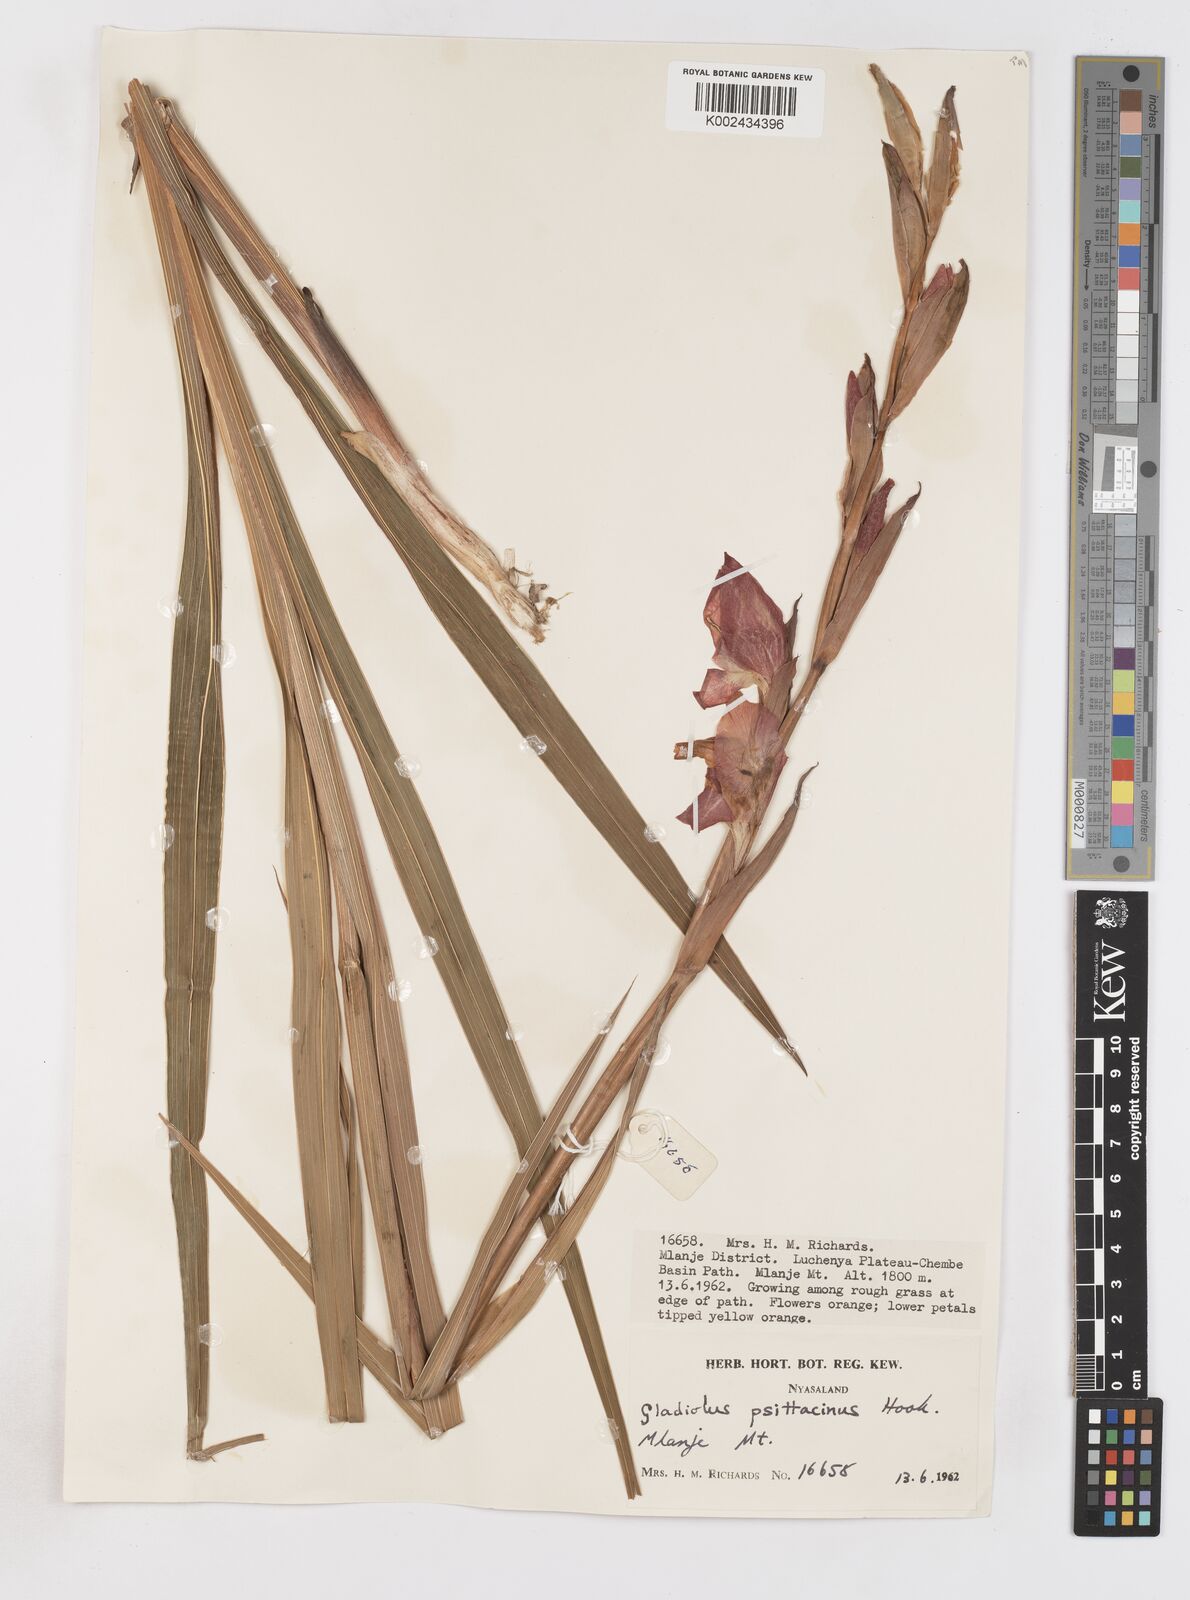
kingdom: Plantae
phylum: Tracheophyta
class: Liliopsida
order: Asparagales
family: Iridaceae
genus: Gladiolus
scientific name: Gladiolus dalenii
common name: Cornflag
